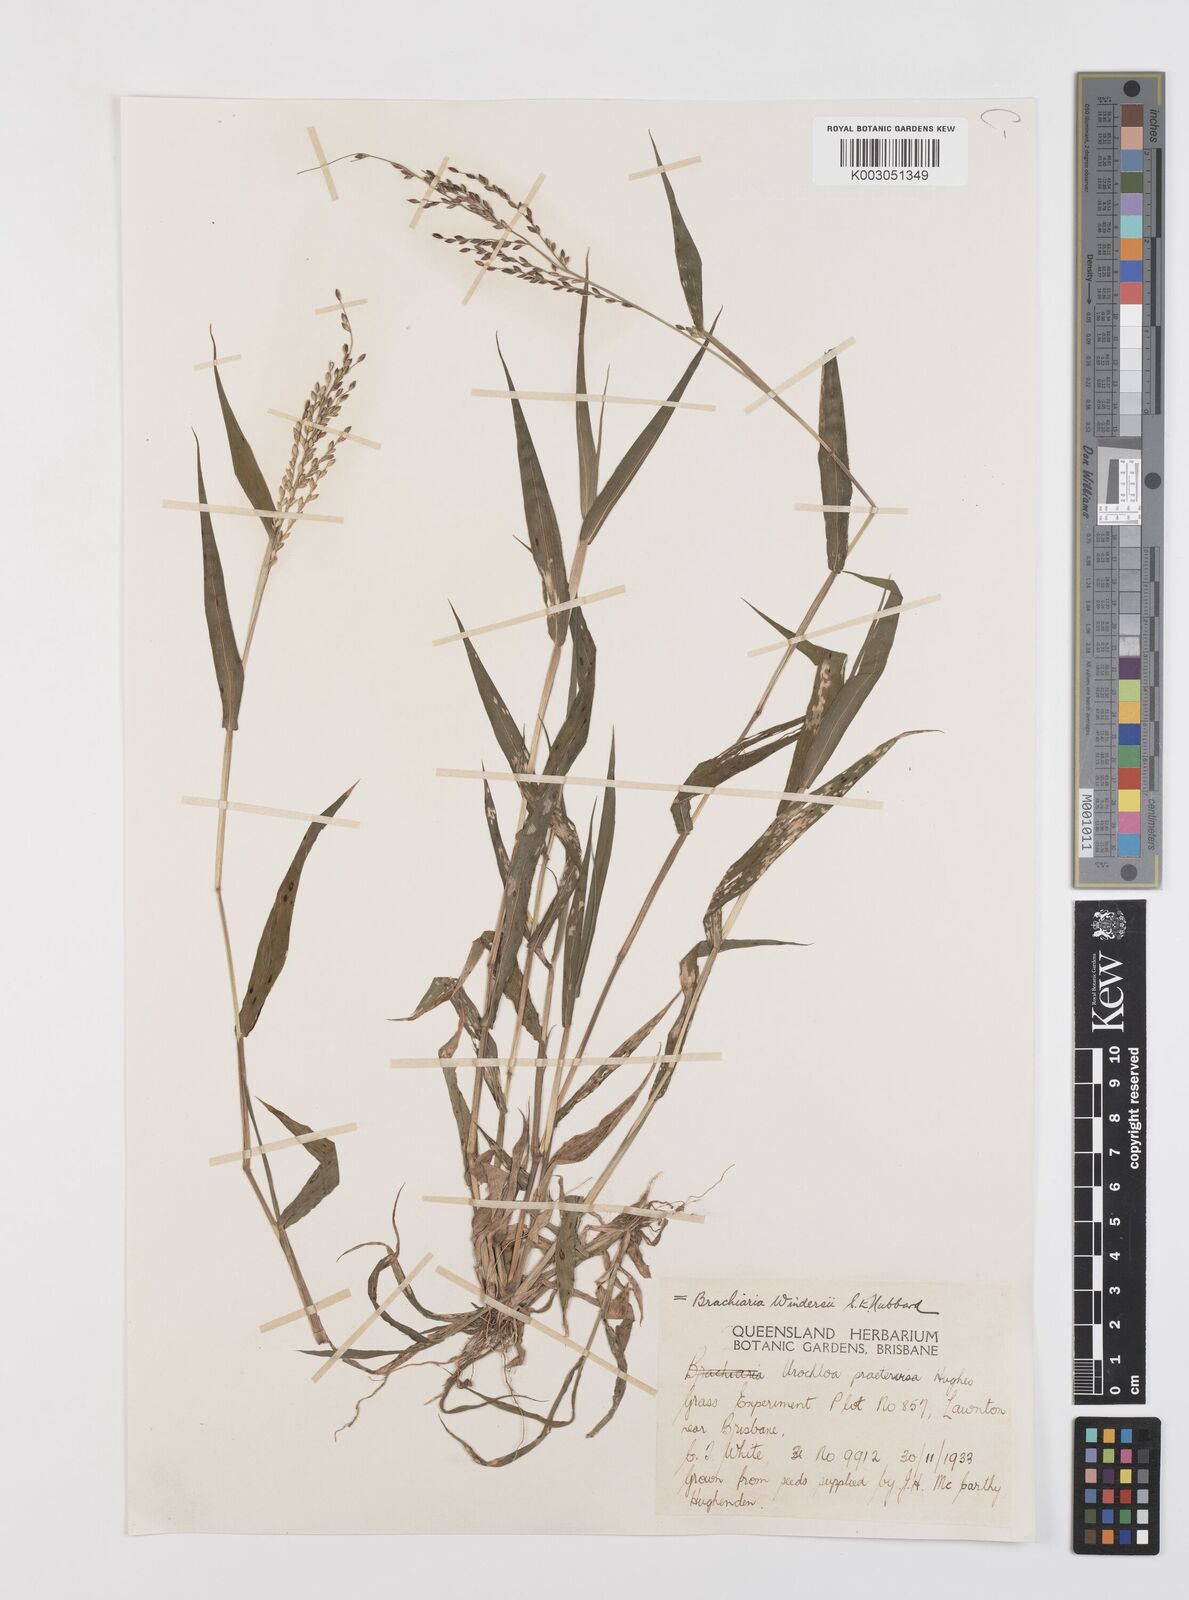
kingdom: Plantae
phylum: Tracheophyta
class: Liliopsida
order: Poales
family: Poaceae
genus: Urochloa
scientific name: Urochloa whiteana
